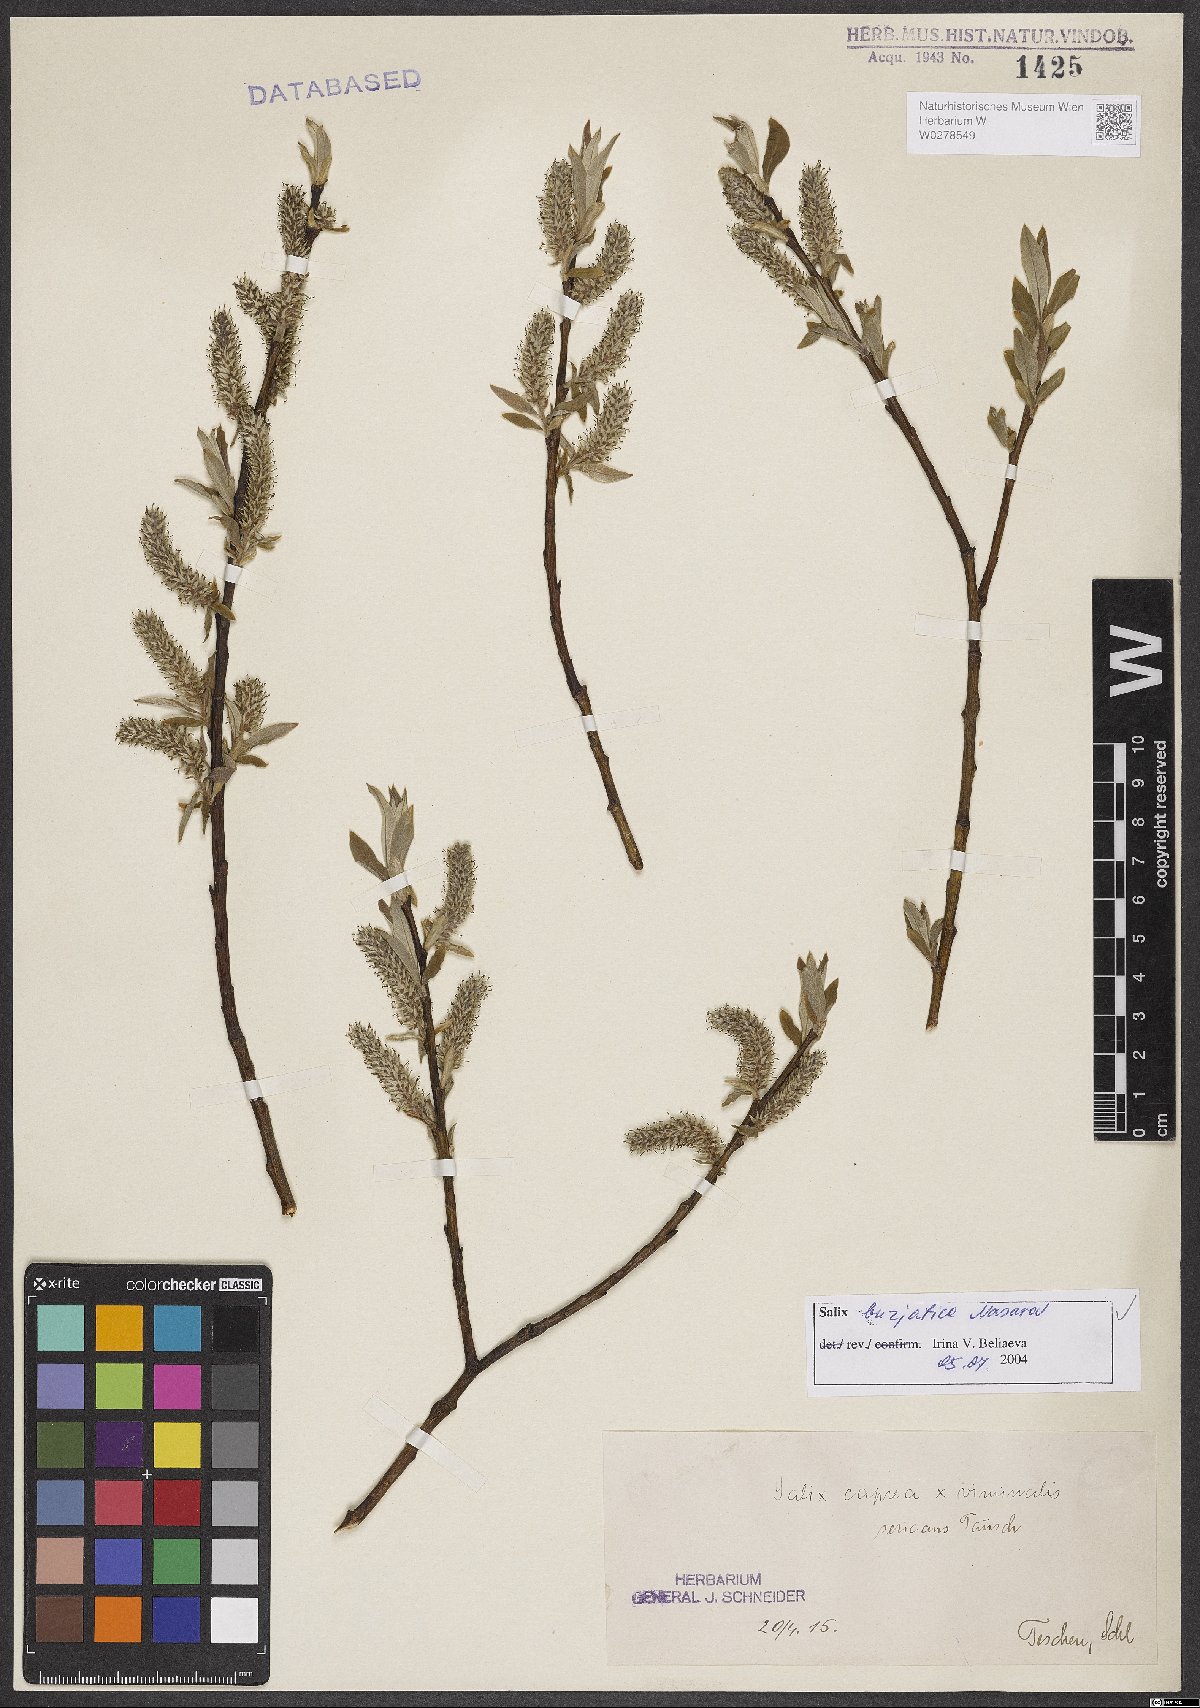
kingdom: Plantae
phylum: Tracheophyta
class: Magnoliopsida
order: Malpighiales
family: Salicaceae
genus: Salix
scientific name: Salix gmelinii
